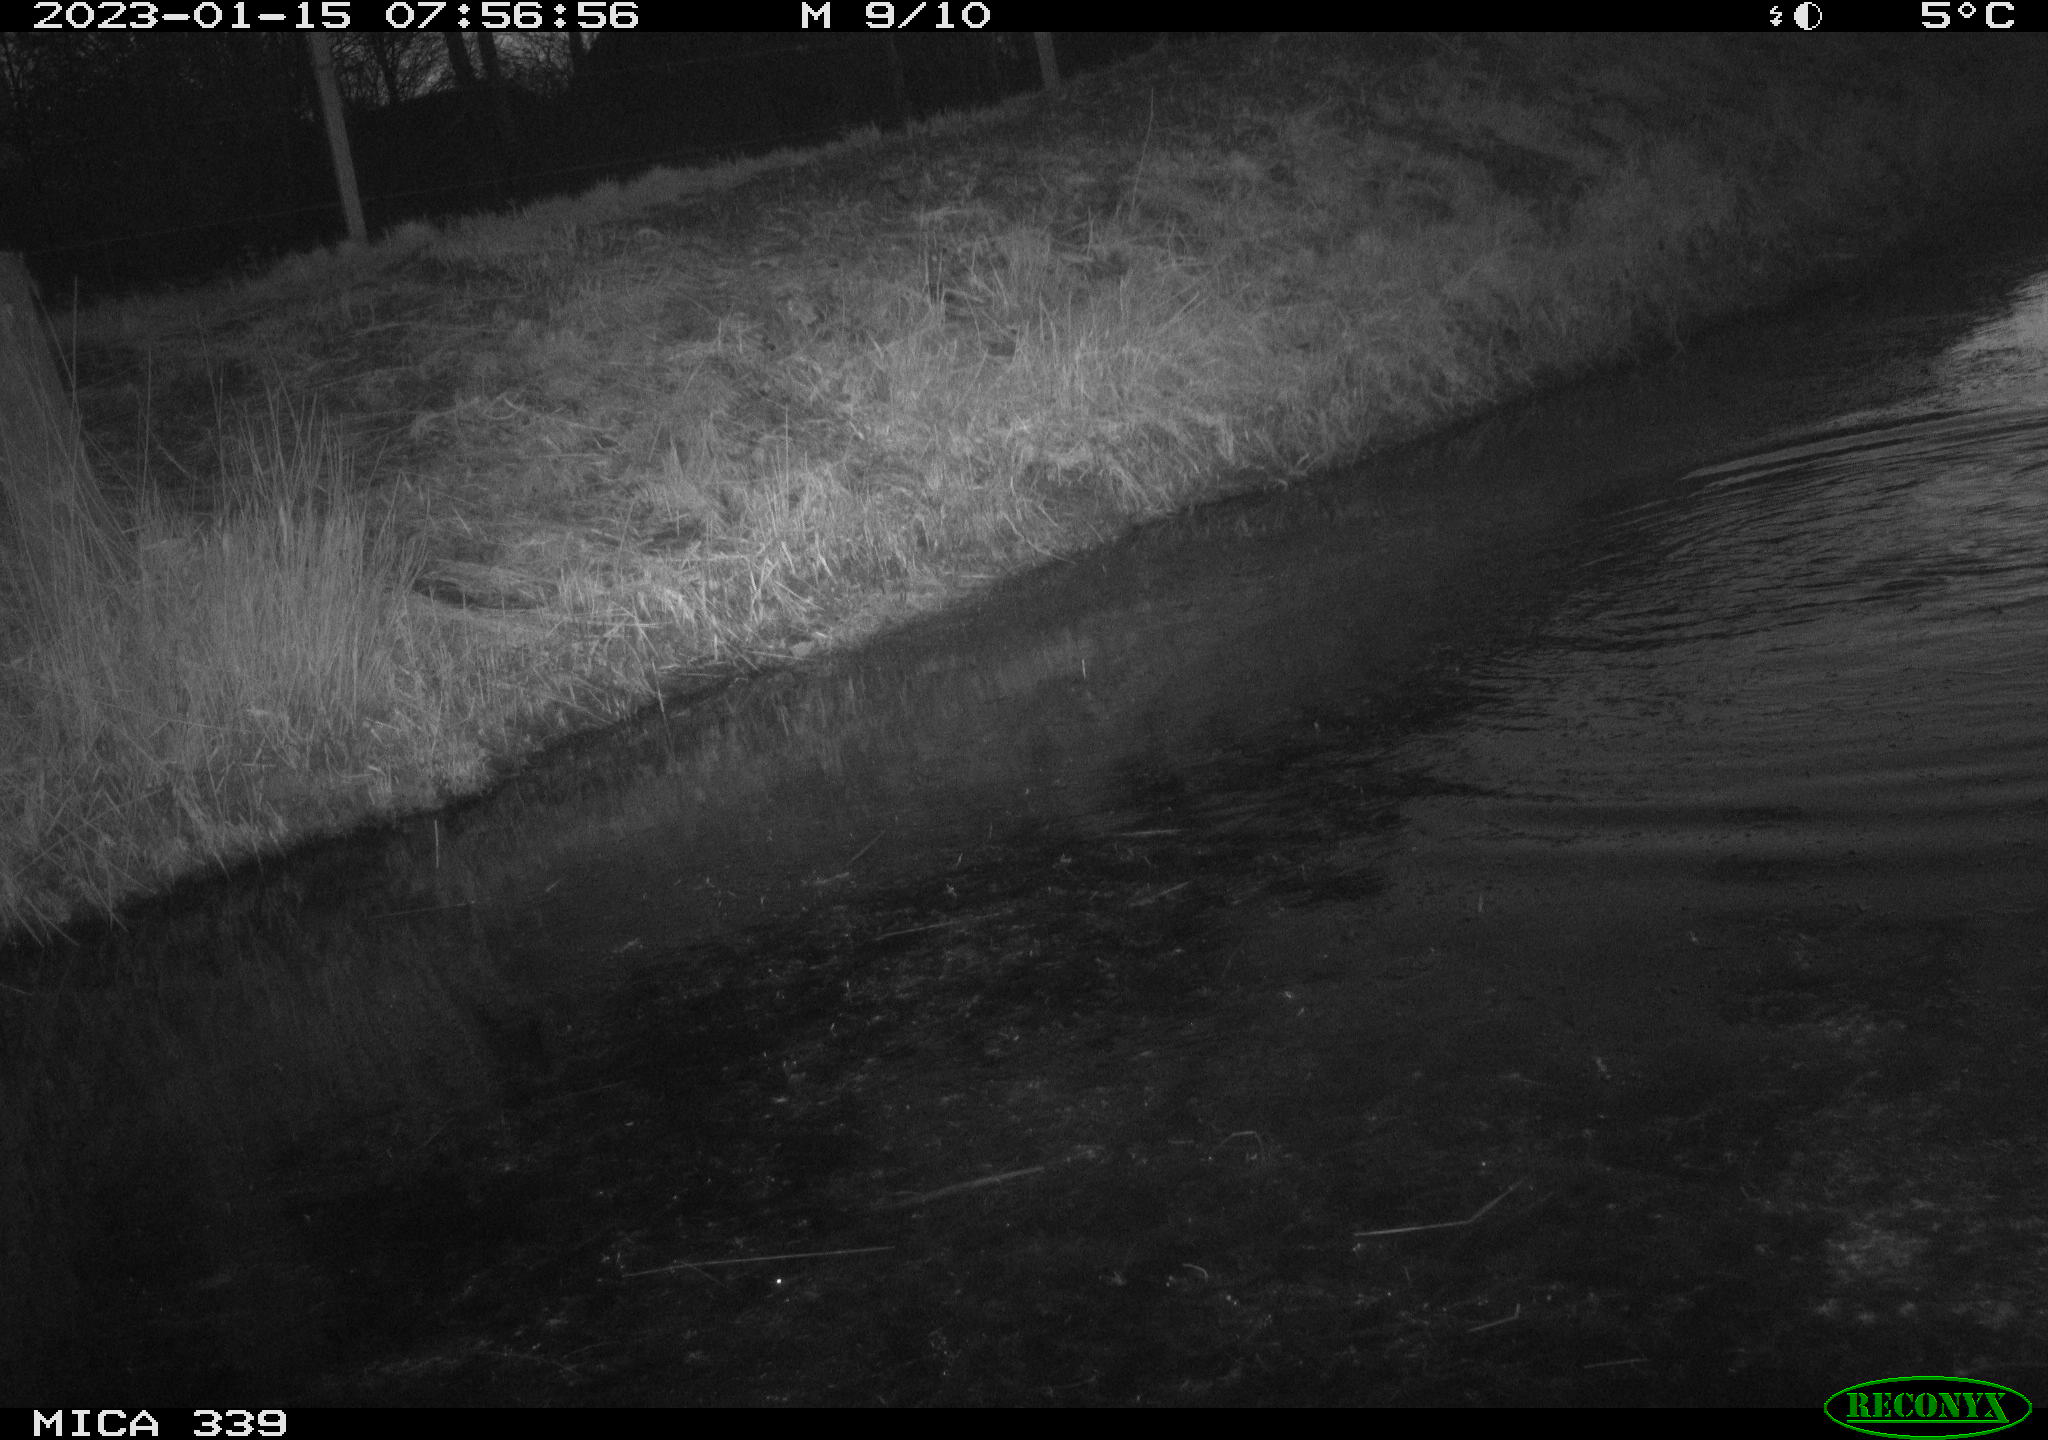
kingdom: Animalia
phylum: Chordata
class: Aves
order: Suliformes
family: Phalacrocoracidae
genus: Phalacrocorax
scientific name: Phalacrocorax carbo
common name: Great cormorant
